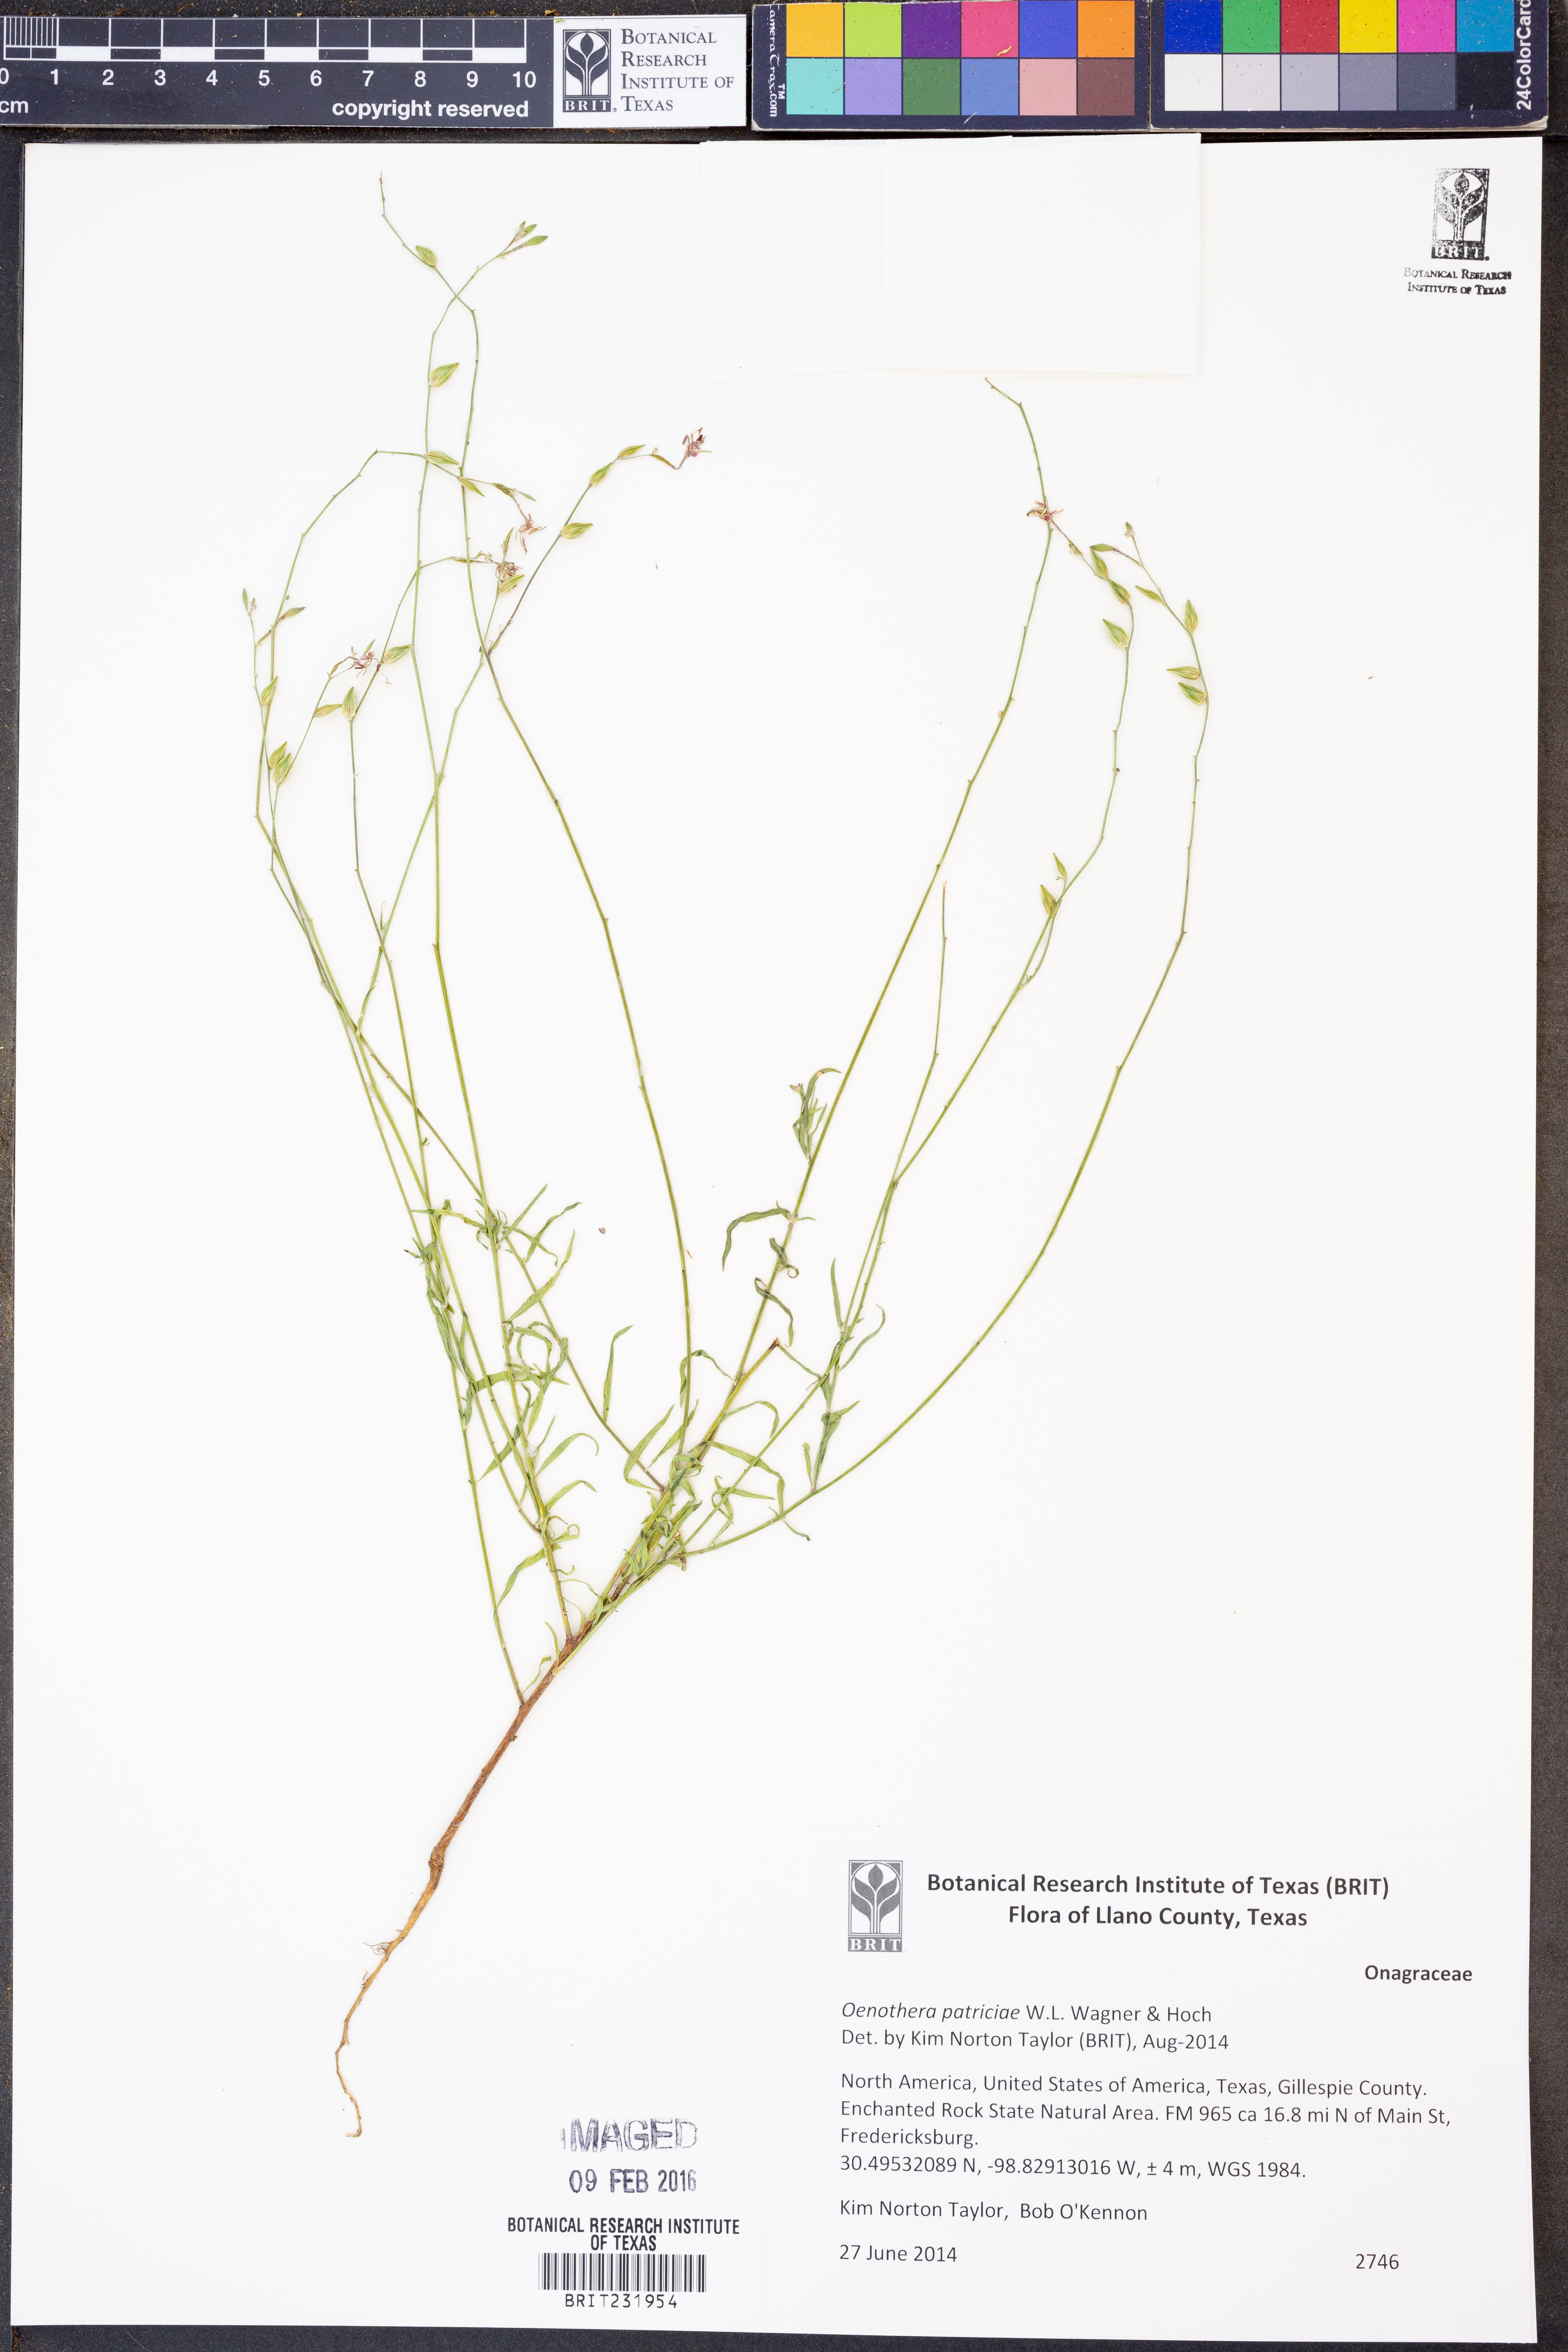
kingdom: Plantae
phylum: Tracheophyta
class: Magnoliopsida
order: Myrtales
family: Onagraceae
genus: Oenothera
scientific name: Oenothera patriciae
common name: Plains beeblossom
